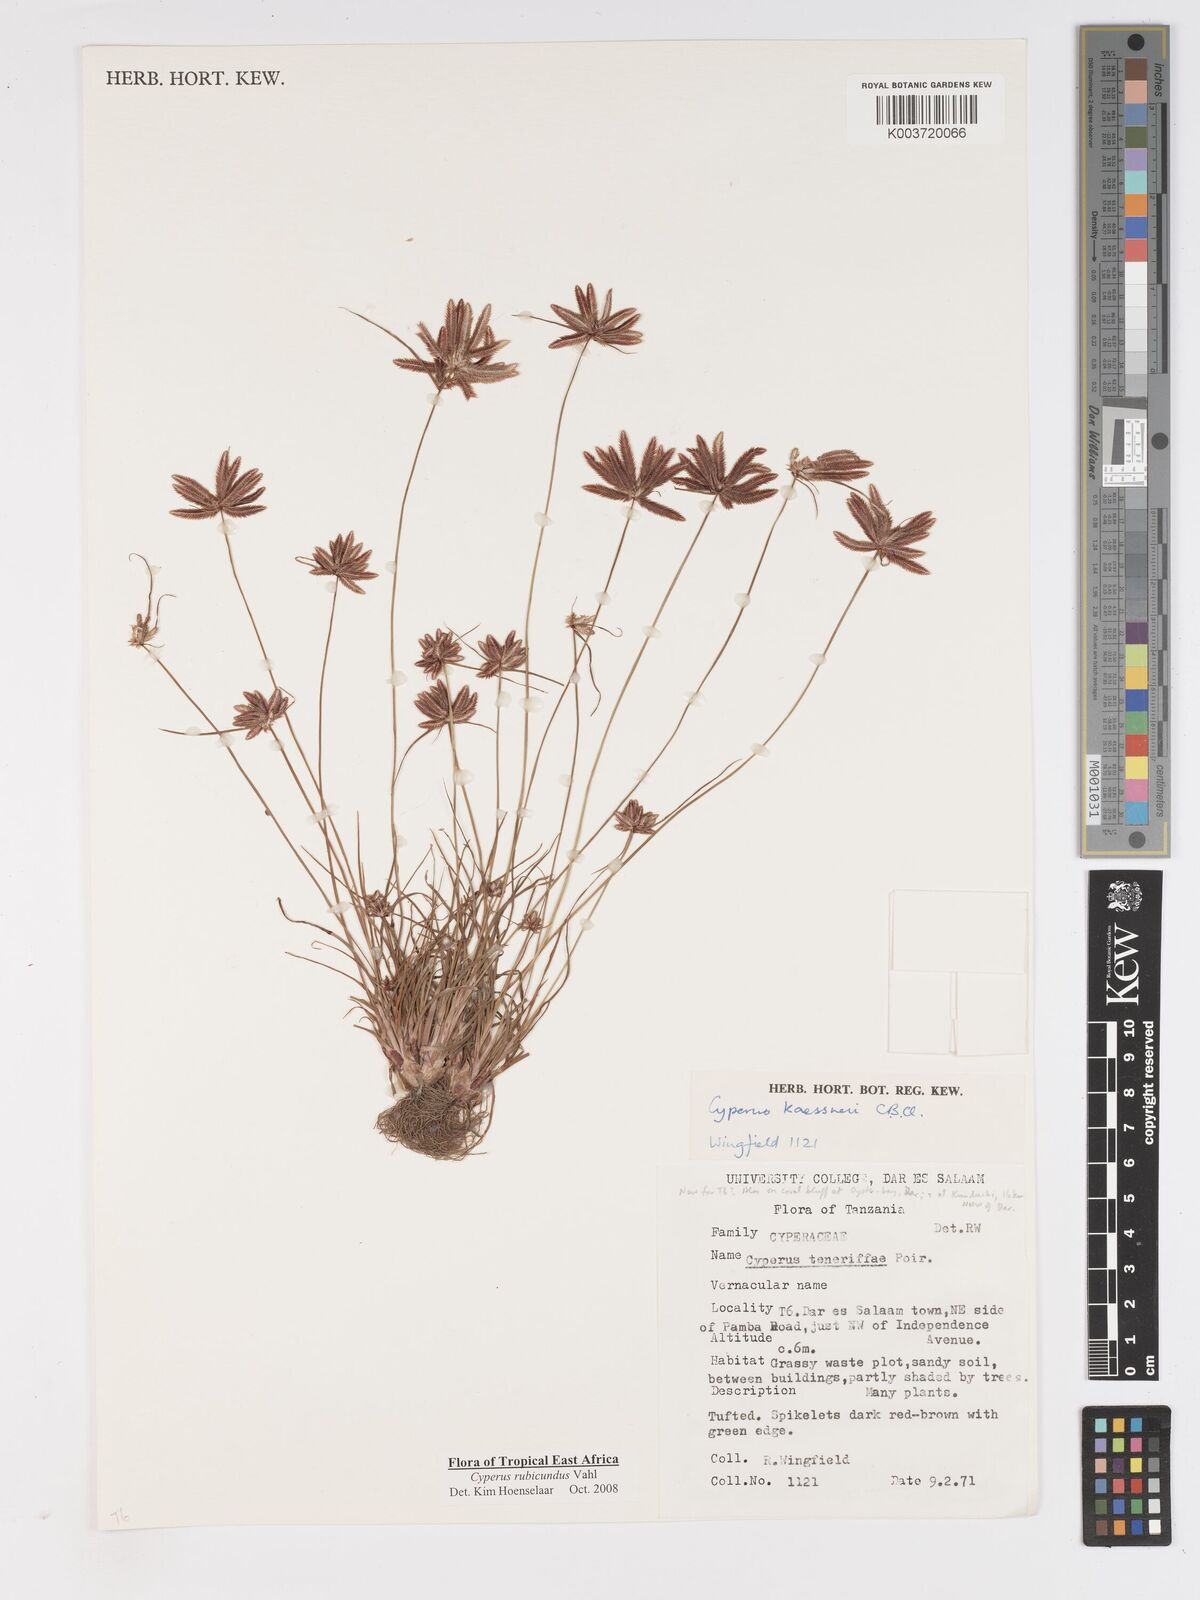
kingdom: Plantae
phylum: Tracheophyta
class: Liliopsida
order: Poales
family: Cyperaceae
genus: Cyperus
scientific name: Cyperus rubicundus
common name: Coco-grass
